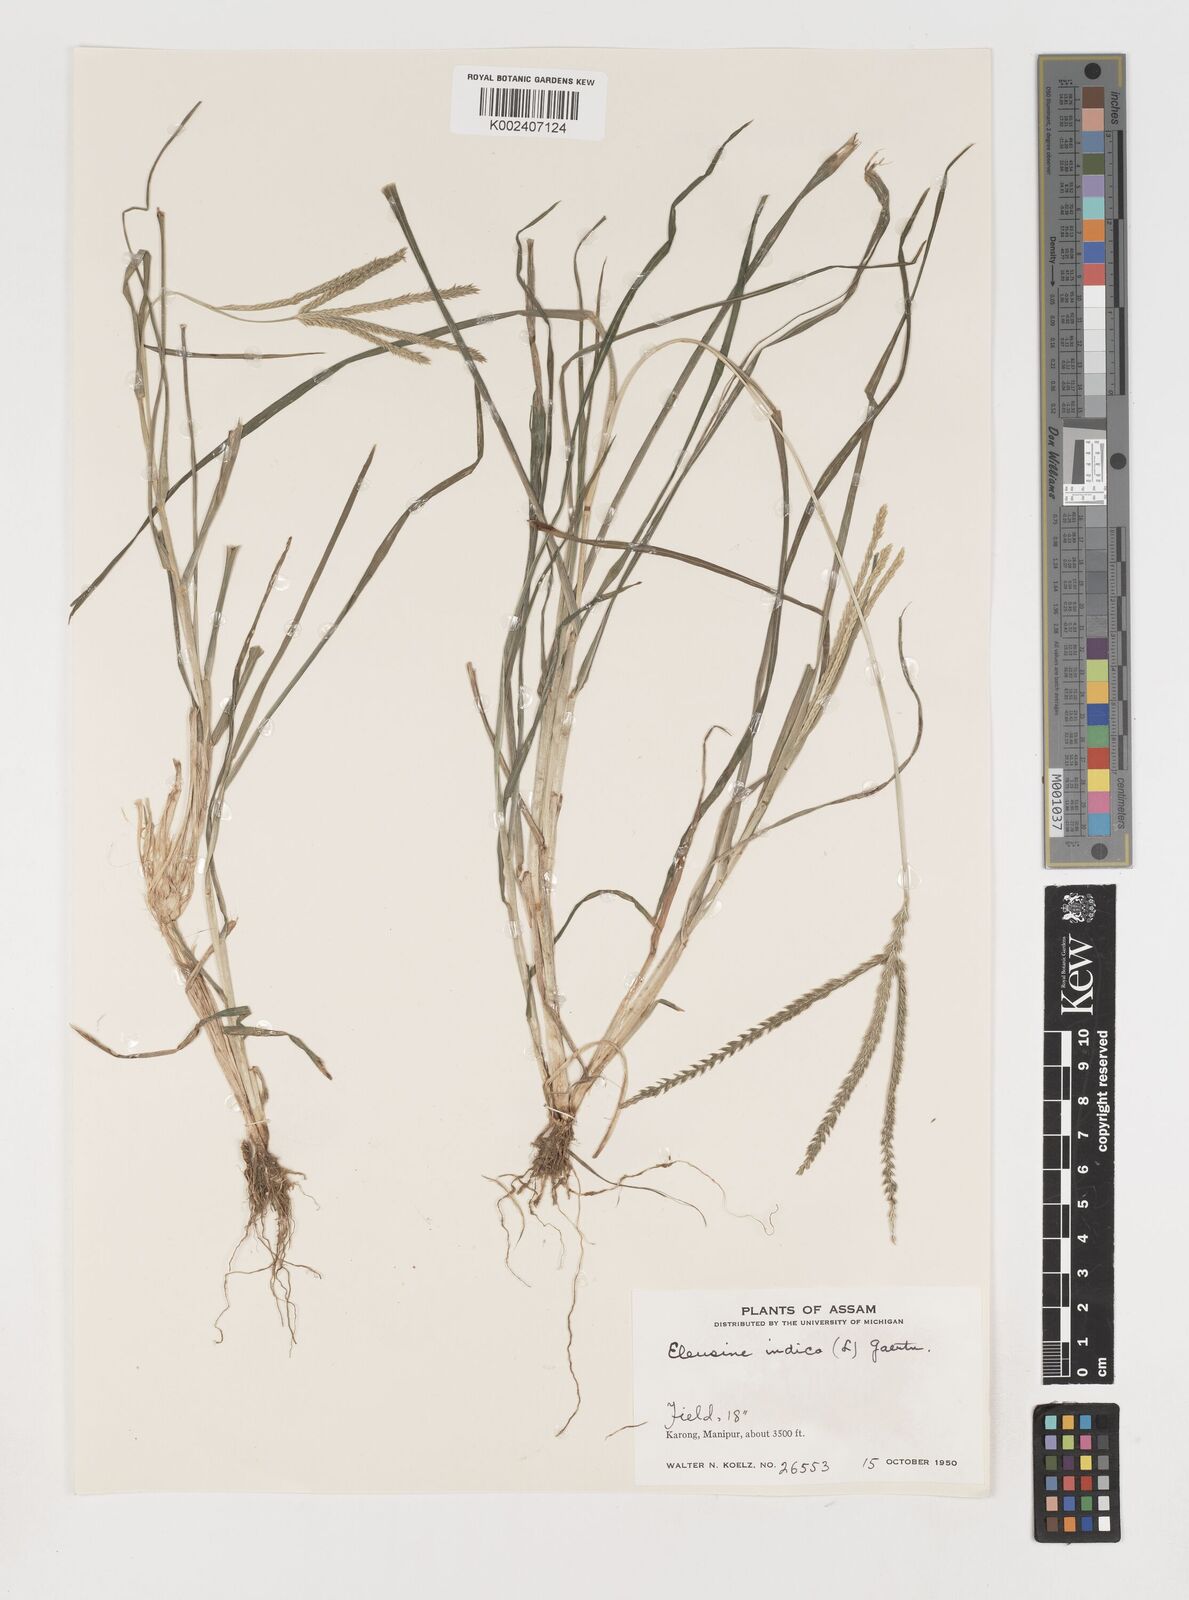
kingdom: Plantae
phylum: Tracheophyta
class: Liliopsida
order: Poales
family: Poaceae
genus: Eleusine
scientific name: Eleusine indica
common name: Yard-grass
